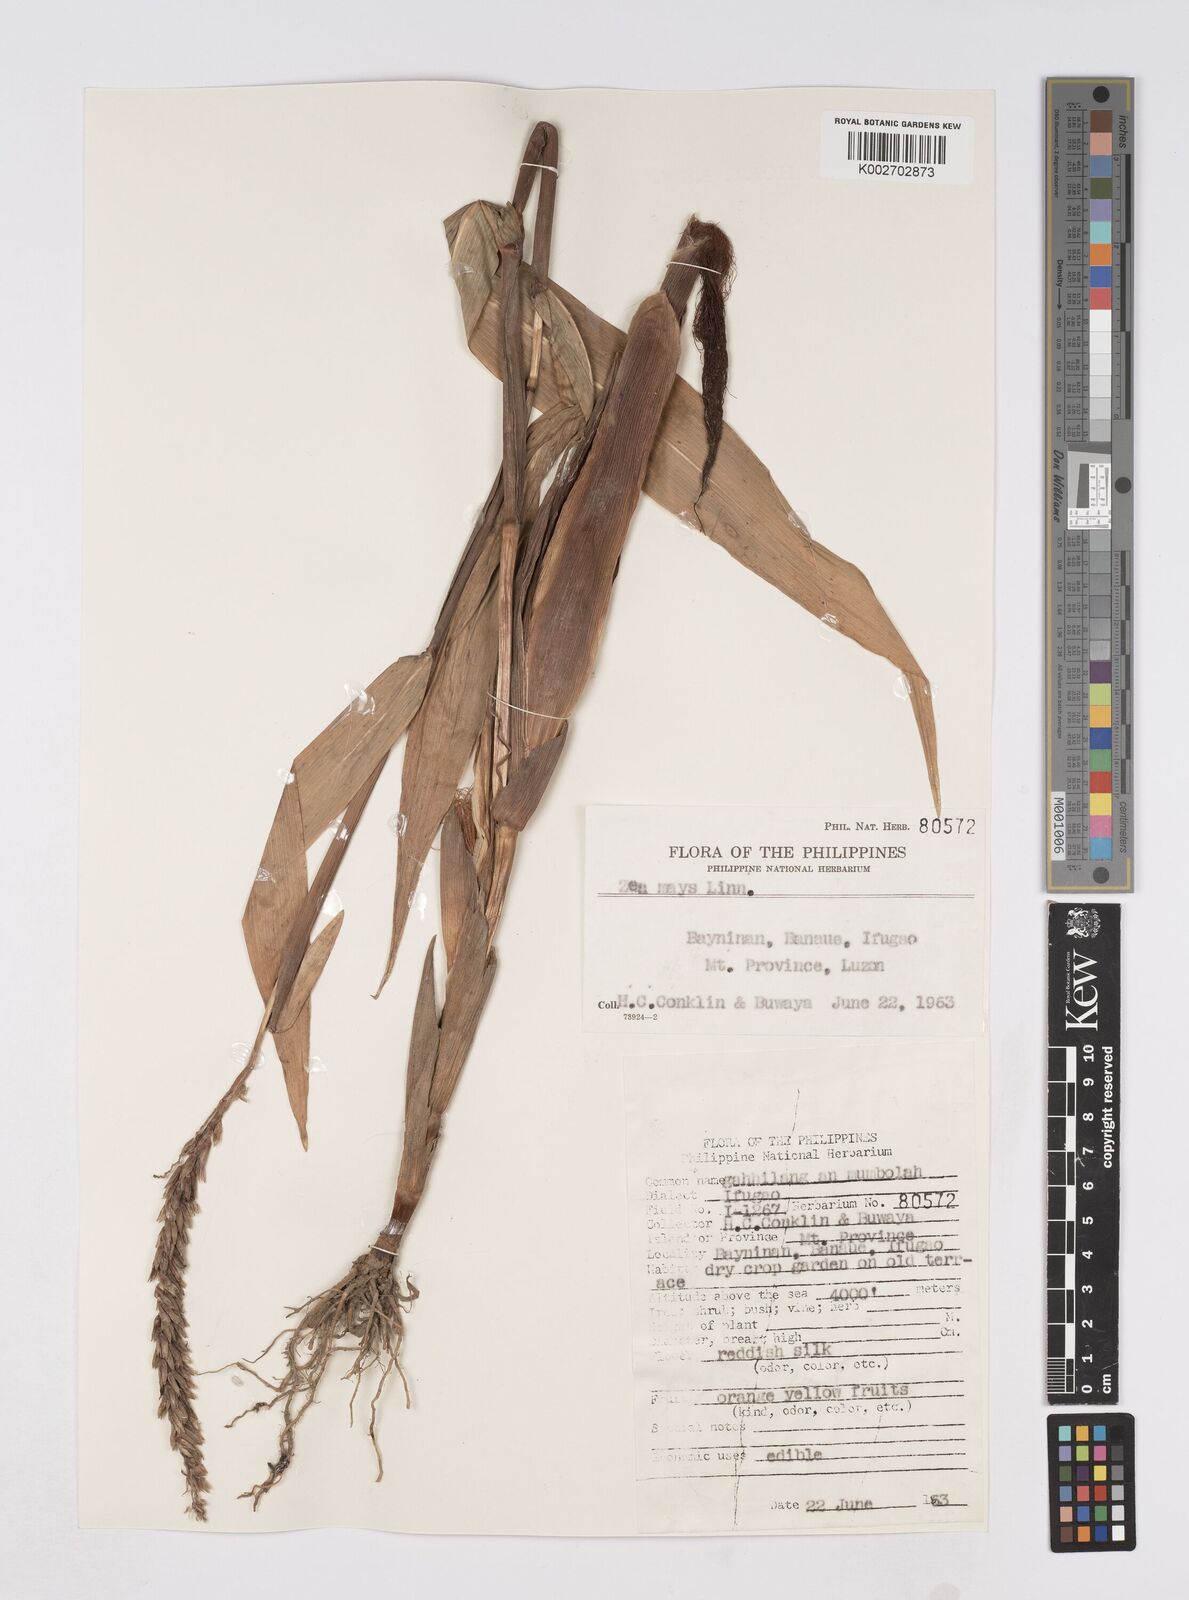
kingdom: Plantae
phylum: Tracheophyta
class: Liliopsida
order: Poales
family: Poaceae
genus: Zea
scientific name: Zea mays
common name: Maize
